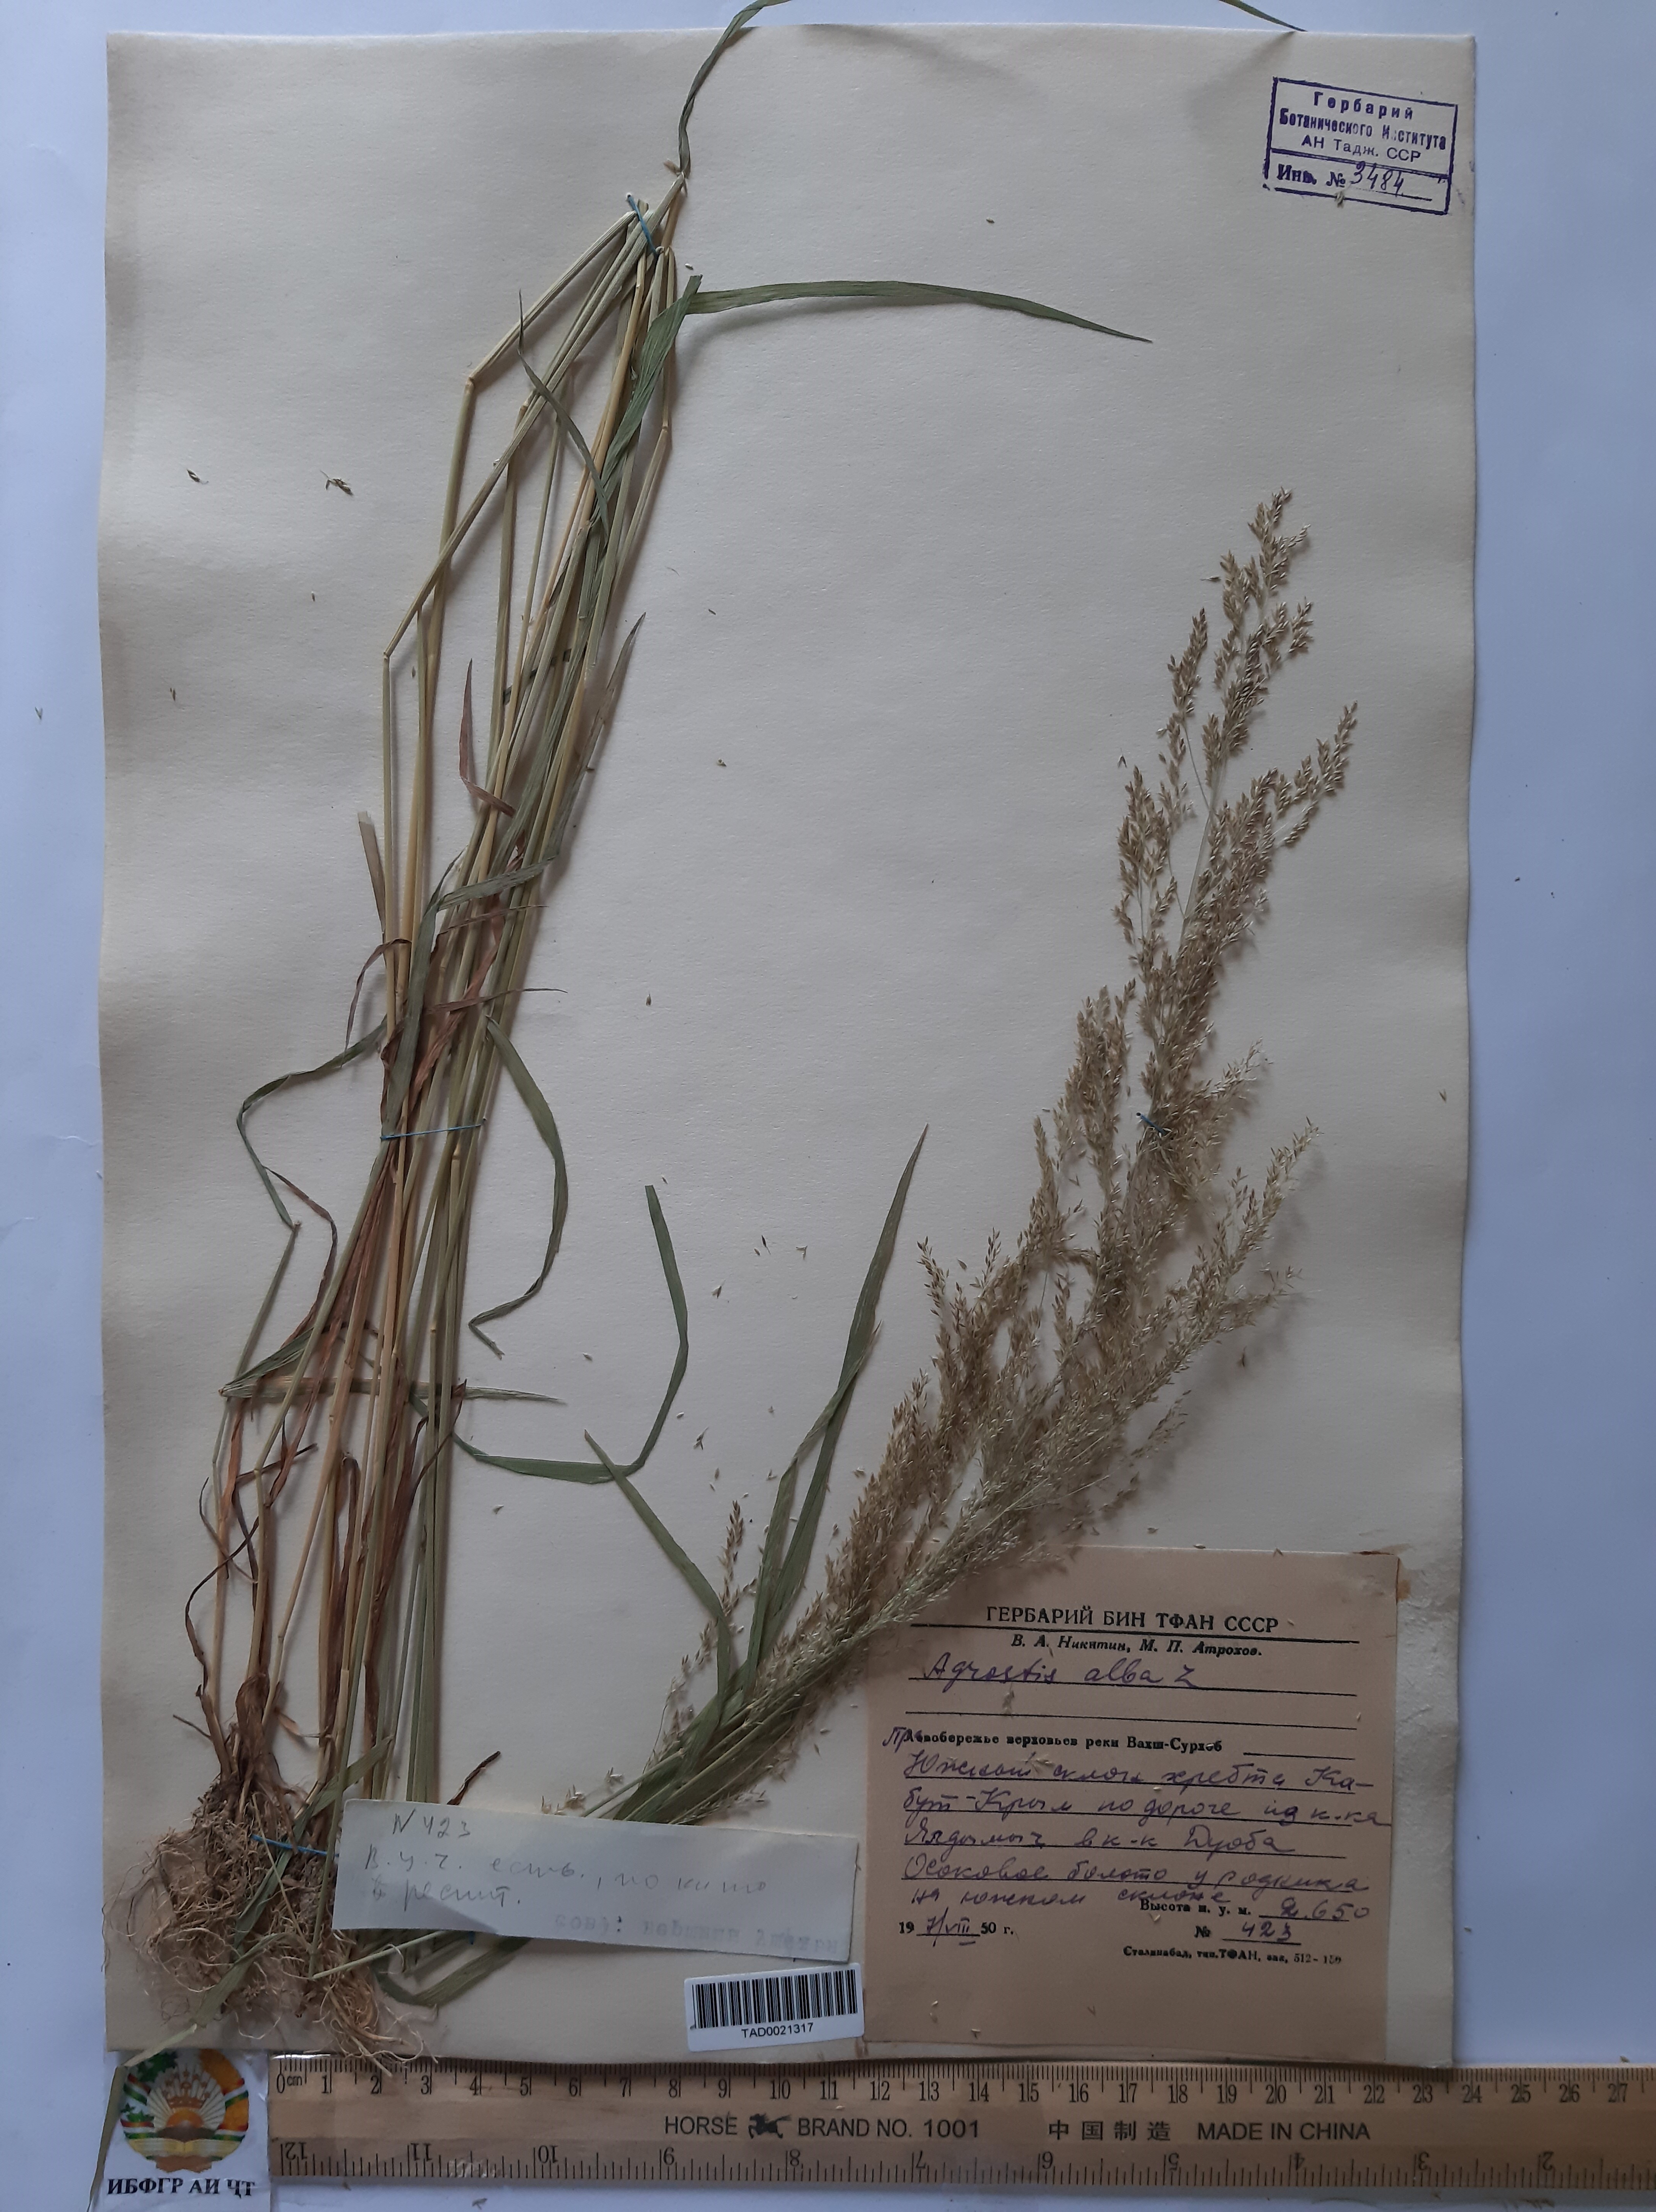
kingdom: Plantae
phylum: Tracheophyta
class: Liliopsida
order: Poales
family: Poaceae
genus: Poa
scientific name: Poa nemoralis
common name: Wood bluegrass
